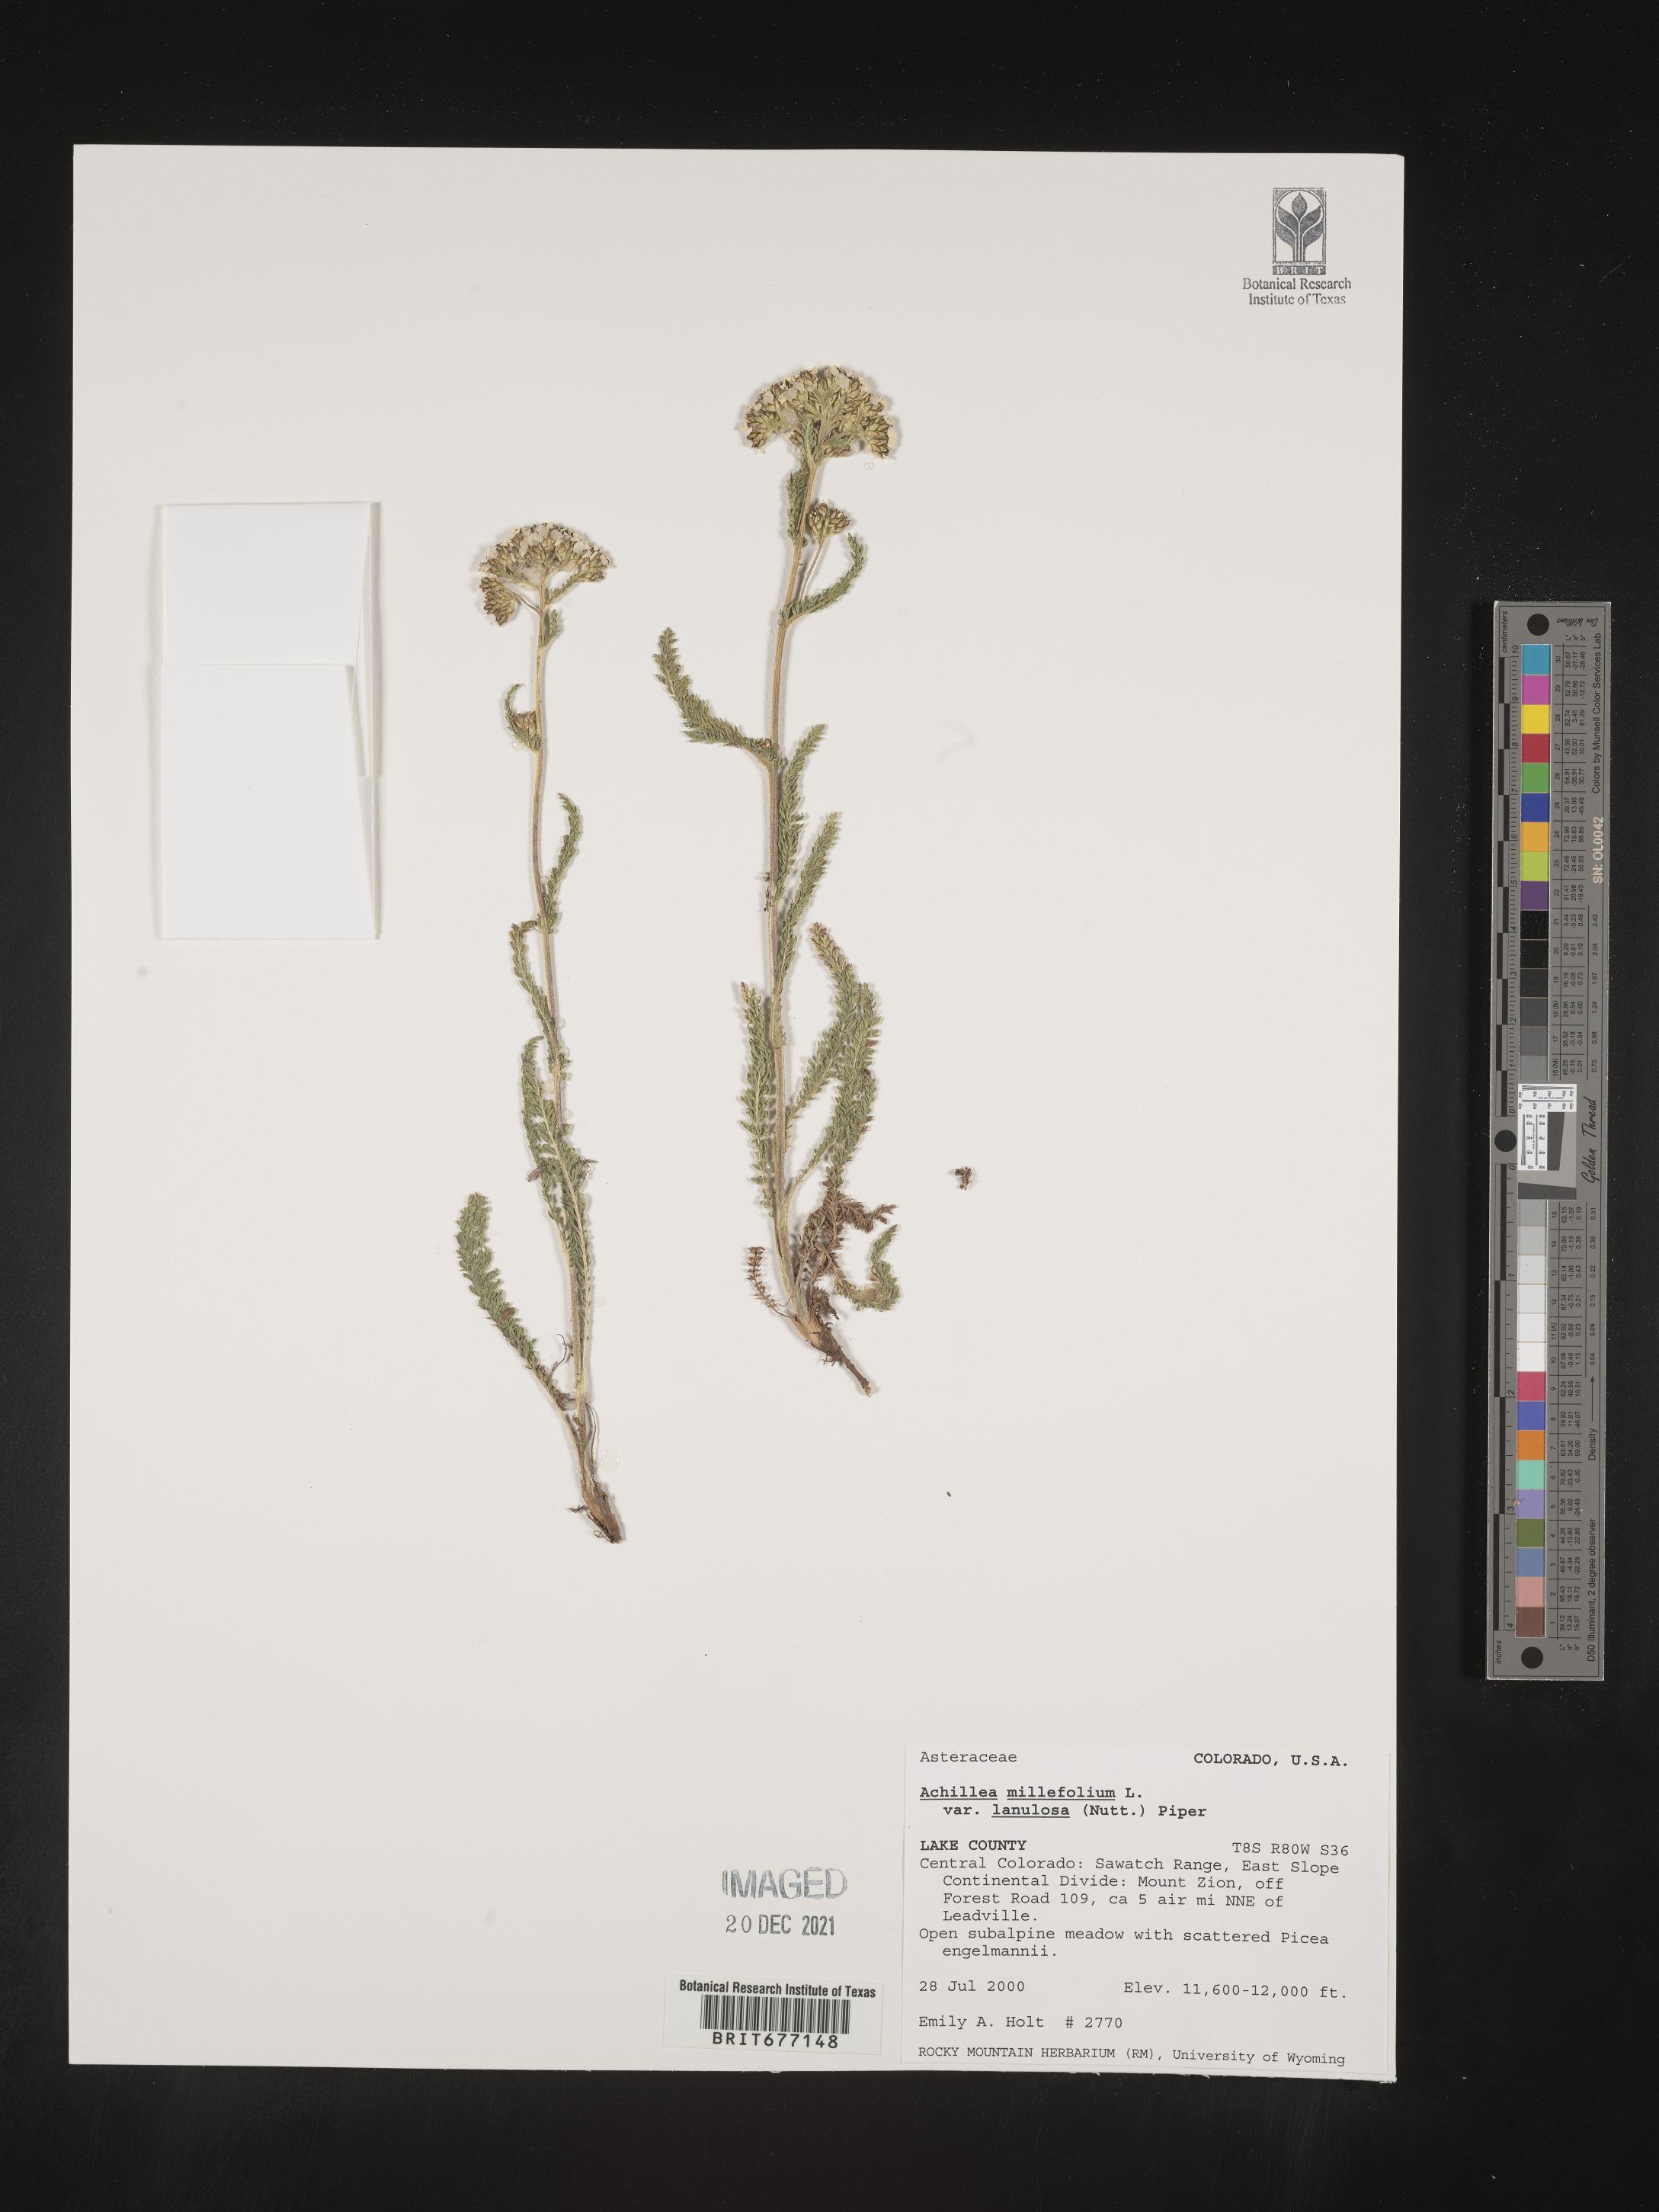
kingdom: Plantae
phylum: Tracheophyta
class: Magnoliopsida
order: Asterales
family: Asteraceae
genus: Achillea
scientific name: Achillea millefolium
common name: Yarrow
